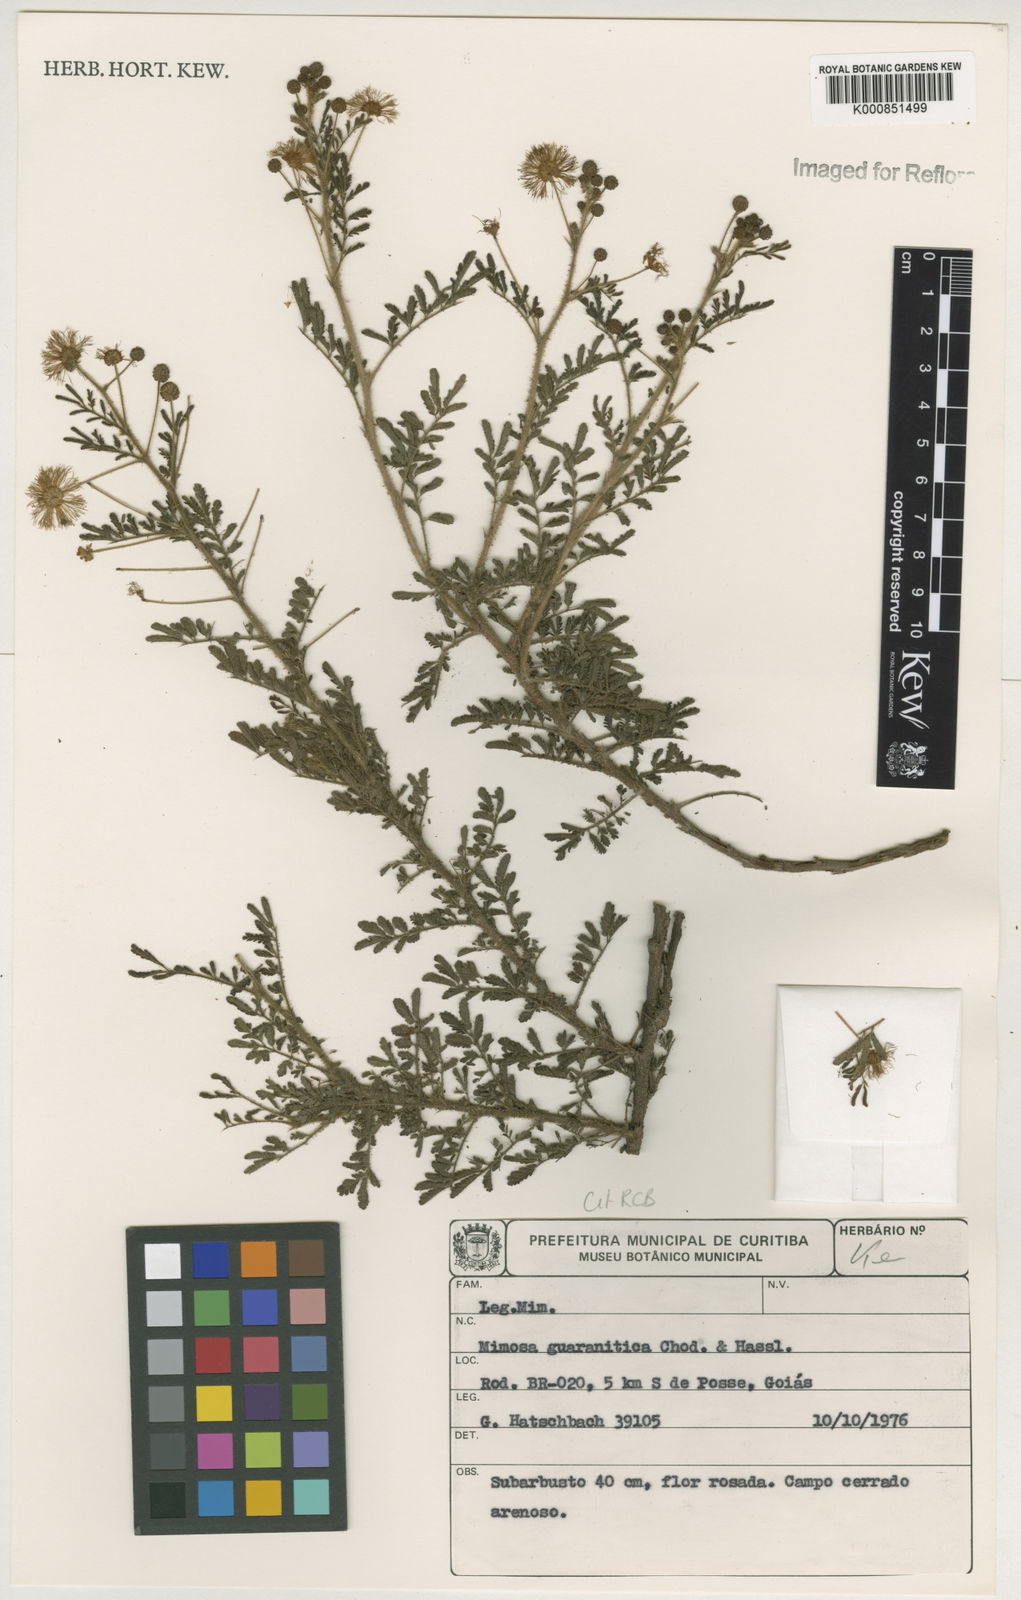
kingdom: Plantae
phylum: Tracheophyta
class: Magnoliopsida
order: Fabales
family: Fabaceae
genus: Mimosa
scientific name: Mimosa guaranitica
